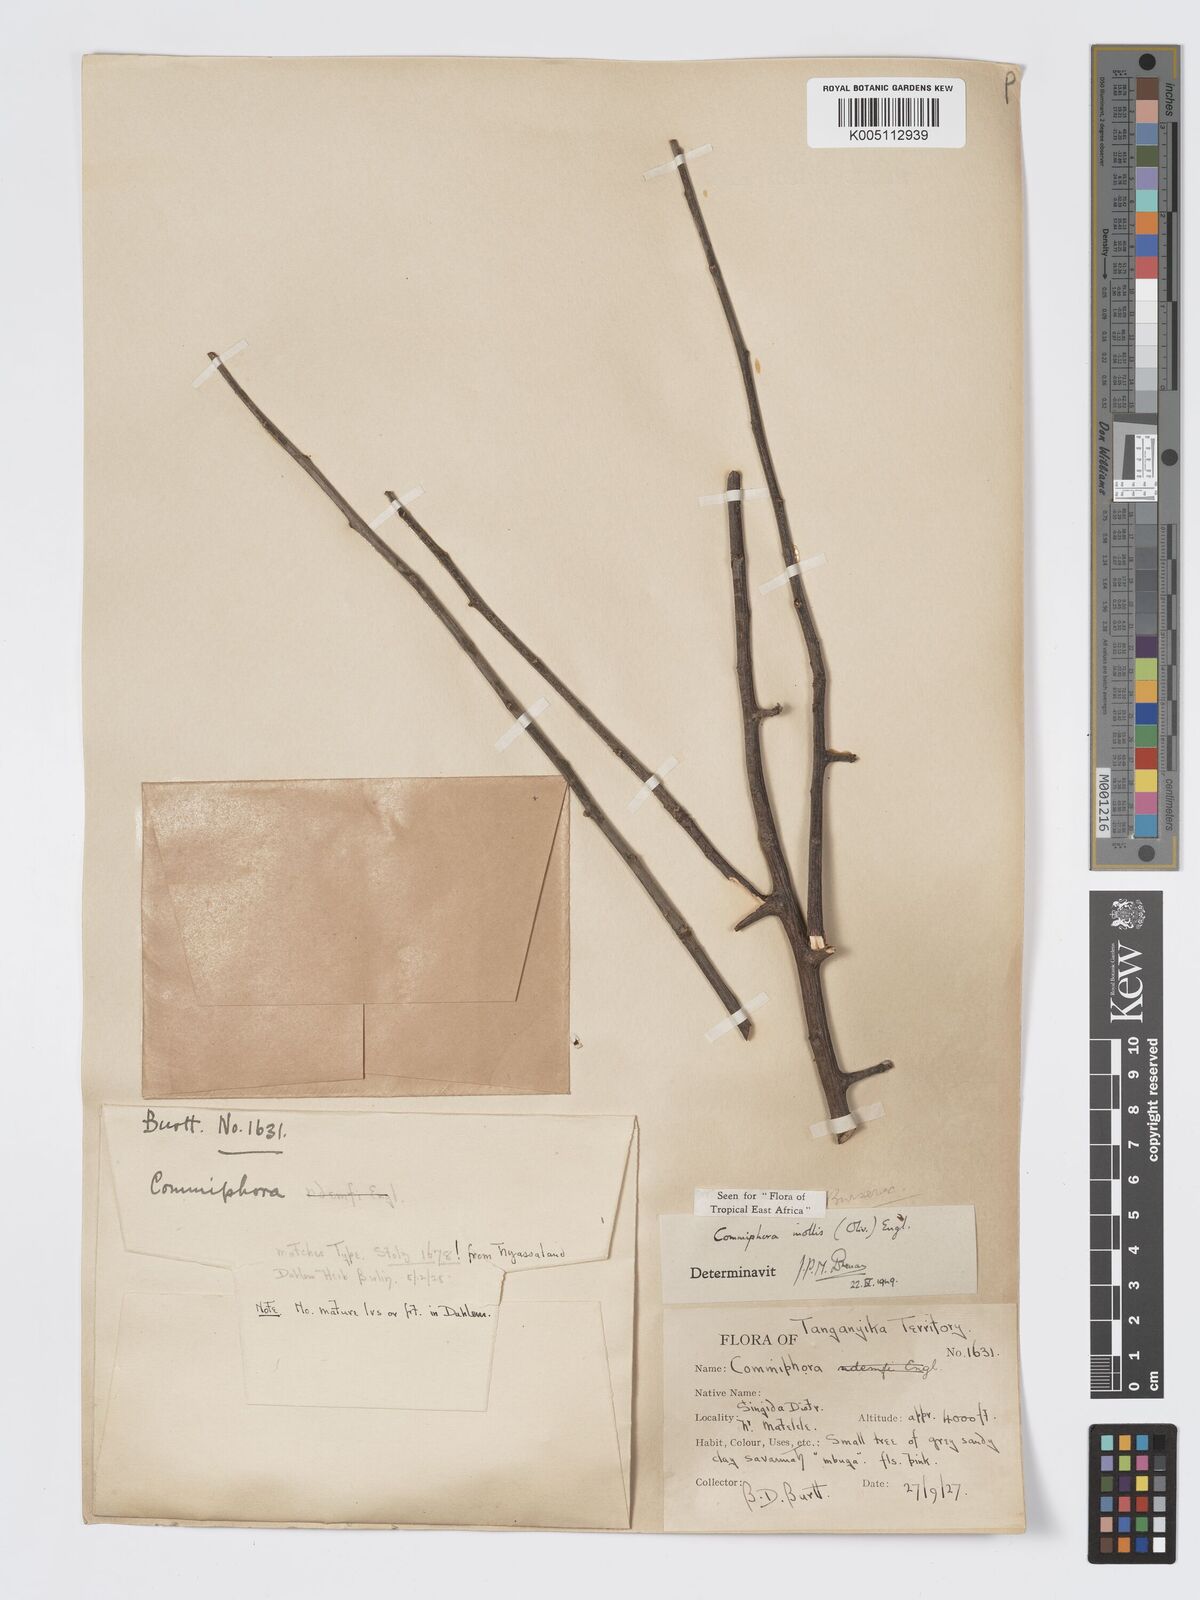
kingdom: Plantae
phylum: Tracheophyta
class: Magnoliopsida
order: Sapindales
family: Burseraceae
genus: Commiphora
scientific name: Commiphora
